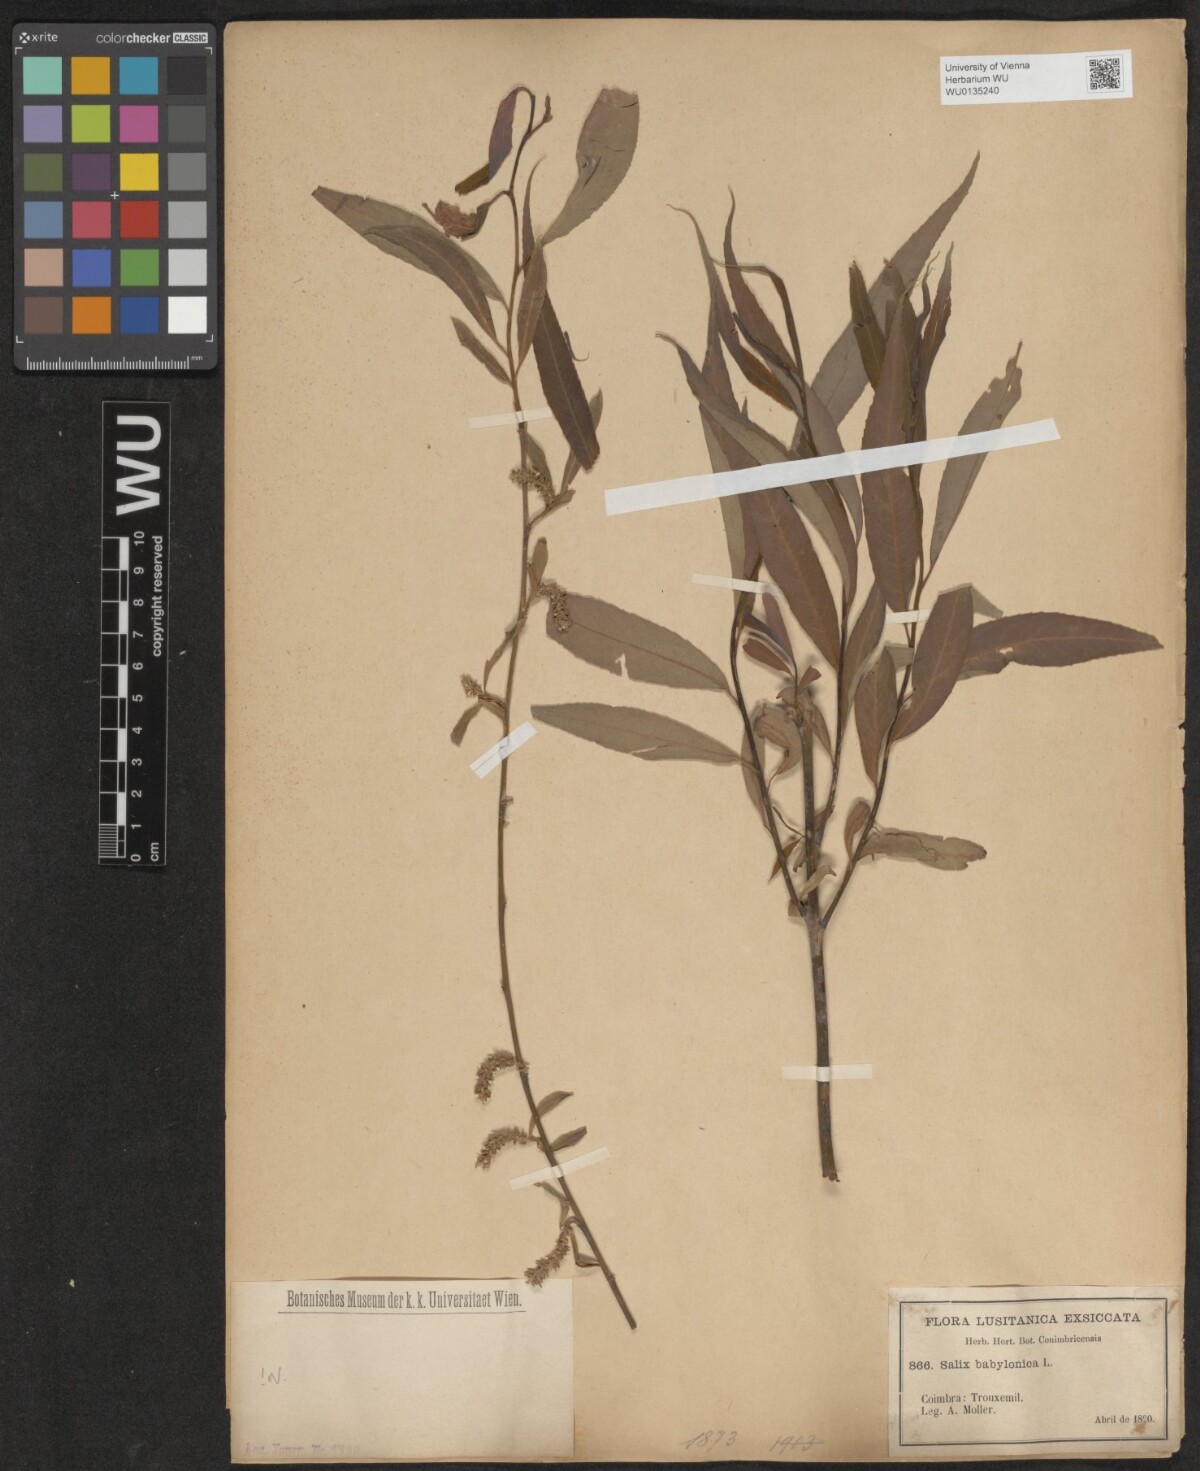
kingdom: Plantae
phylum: Tracheophyta
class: Magnoliopsida
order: Malpighiales
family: Salicaceae
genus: Salix
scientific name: Salix babylonica
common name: Weeping willow
